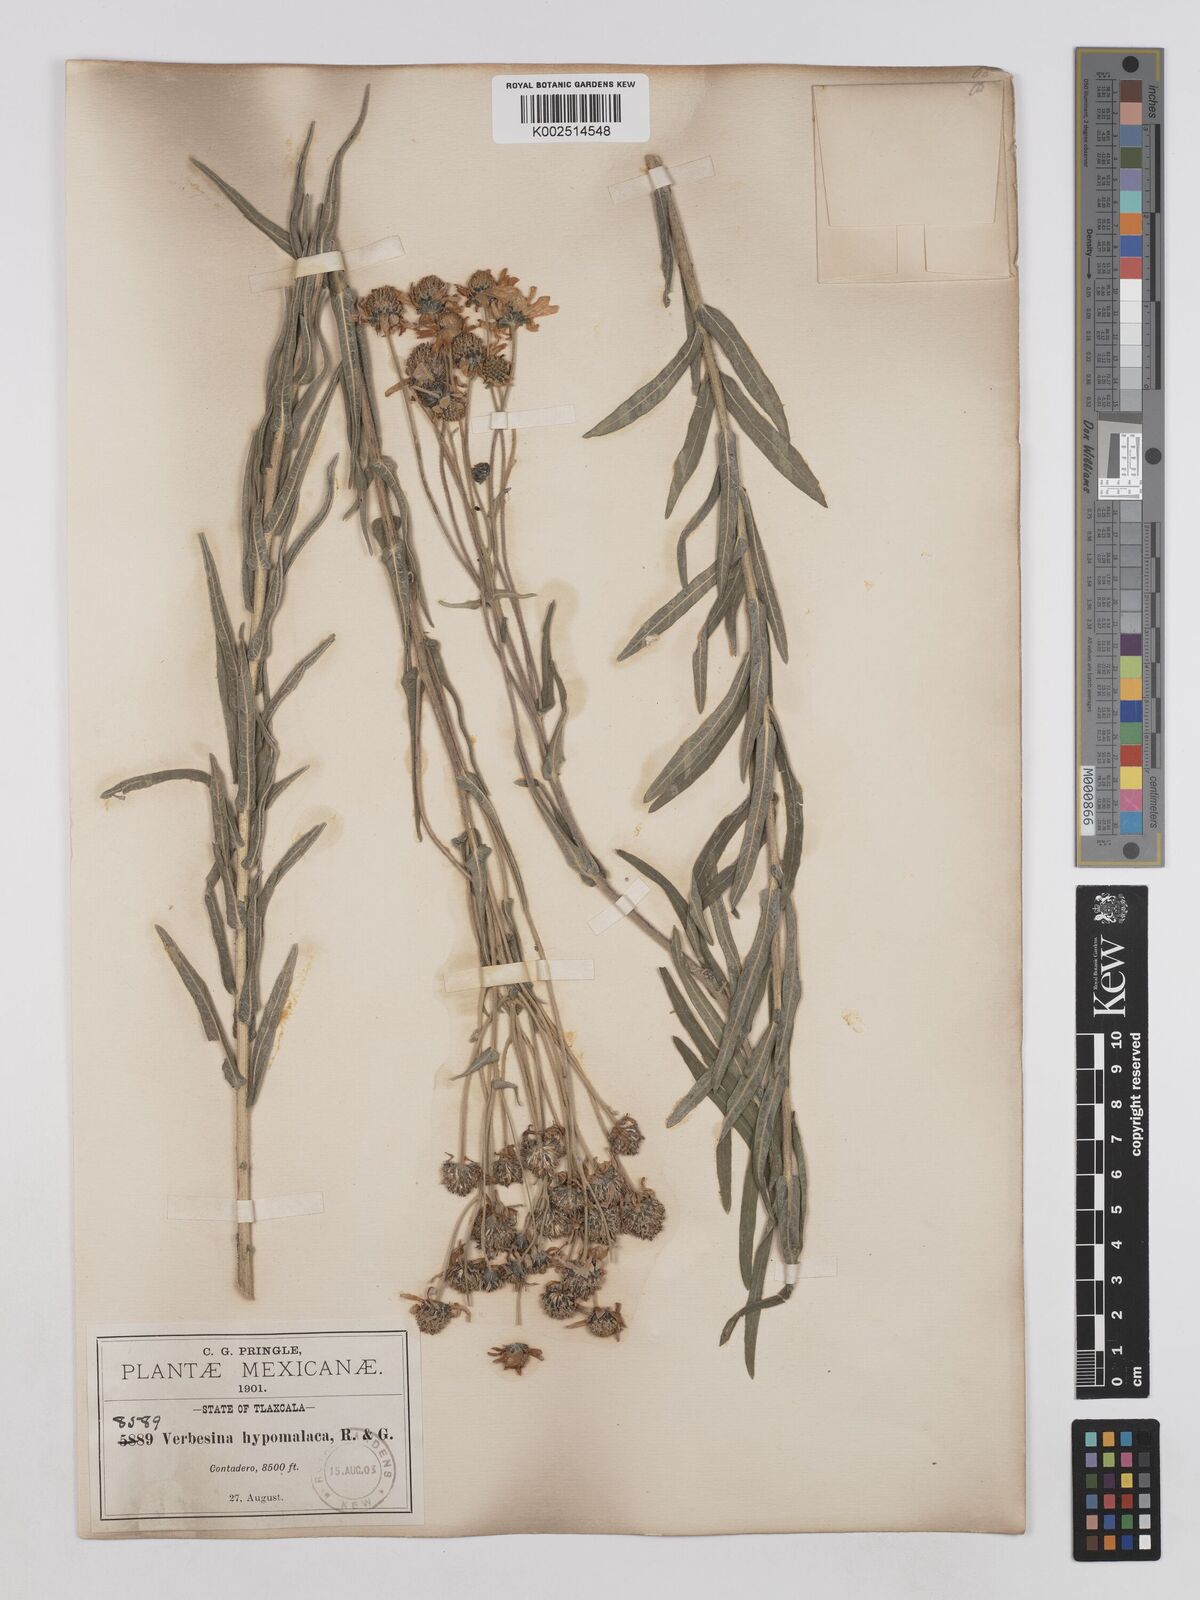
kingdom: Plantae
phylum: Tracheophyta
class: Magnoliopsida
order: Asterales
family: Asteraceae
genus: Verbesina
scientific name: Verbesina hypomalaca
